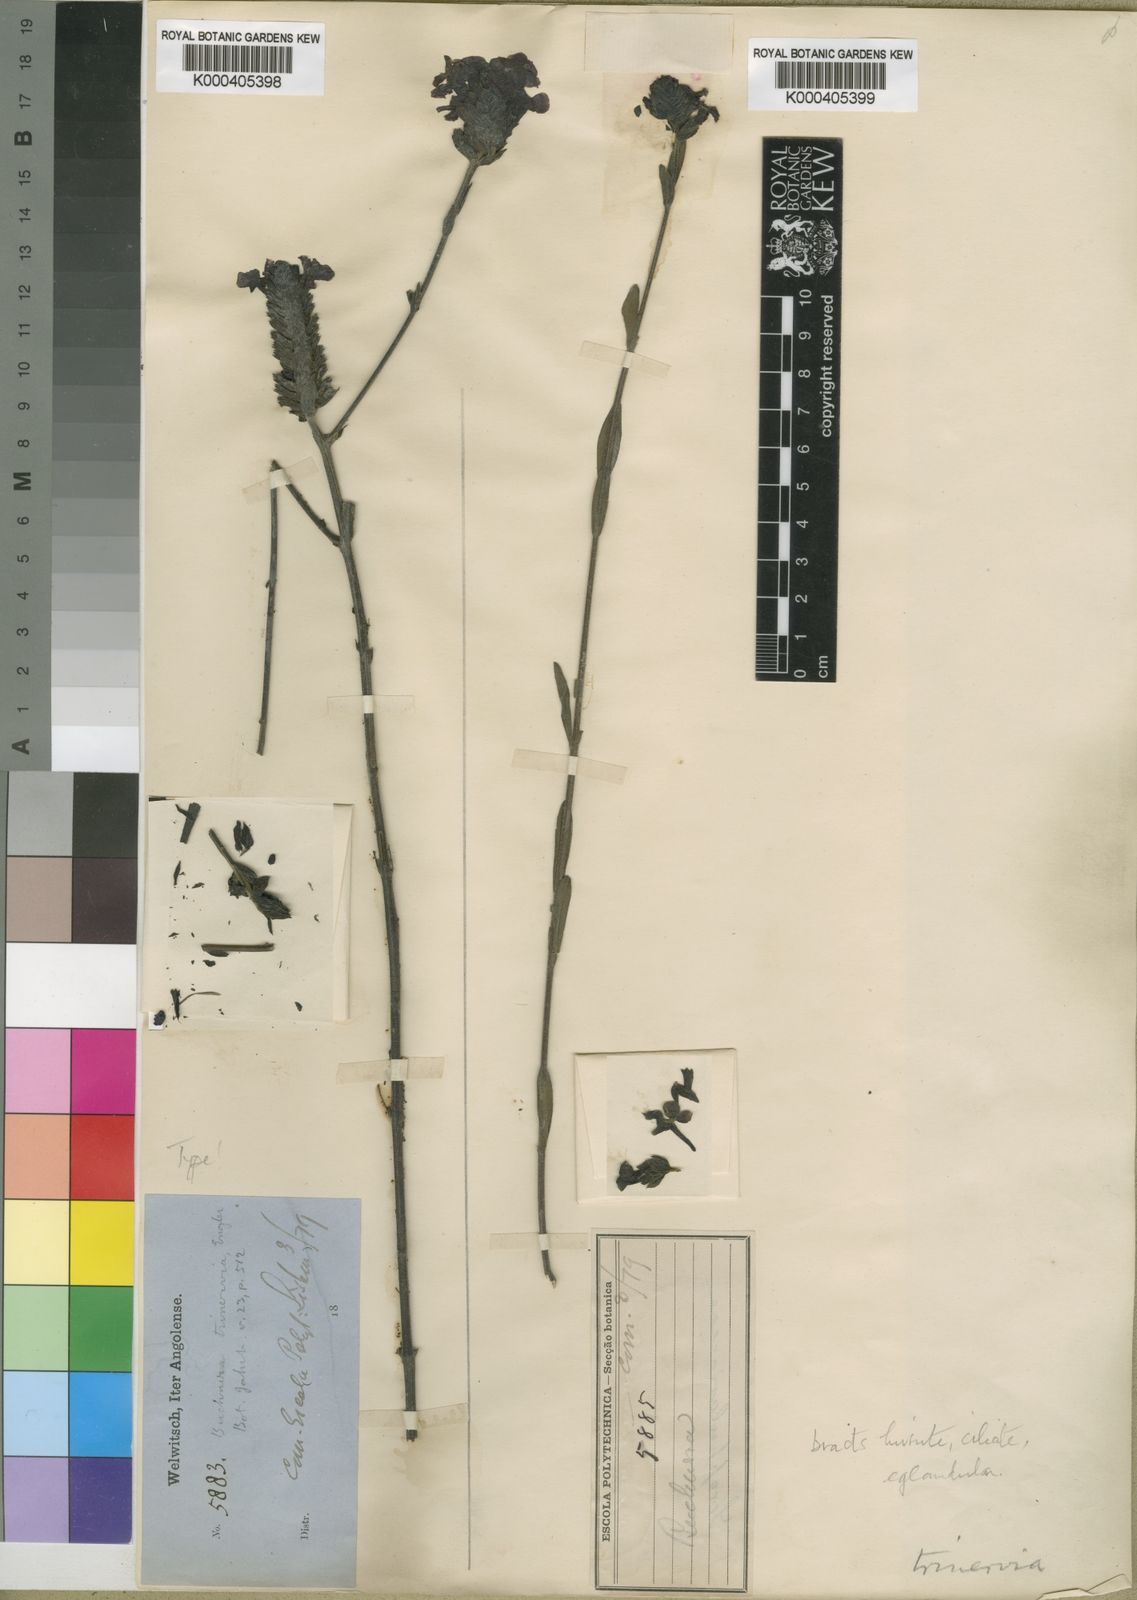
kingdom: Plantae
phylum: Tracheophyta
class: Magnoliopsida
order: Lamiales
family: Orobanchaceae
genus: Buchnera
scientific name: Buchnera lippioides
